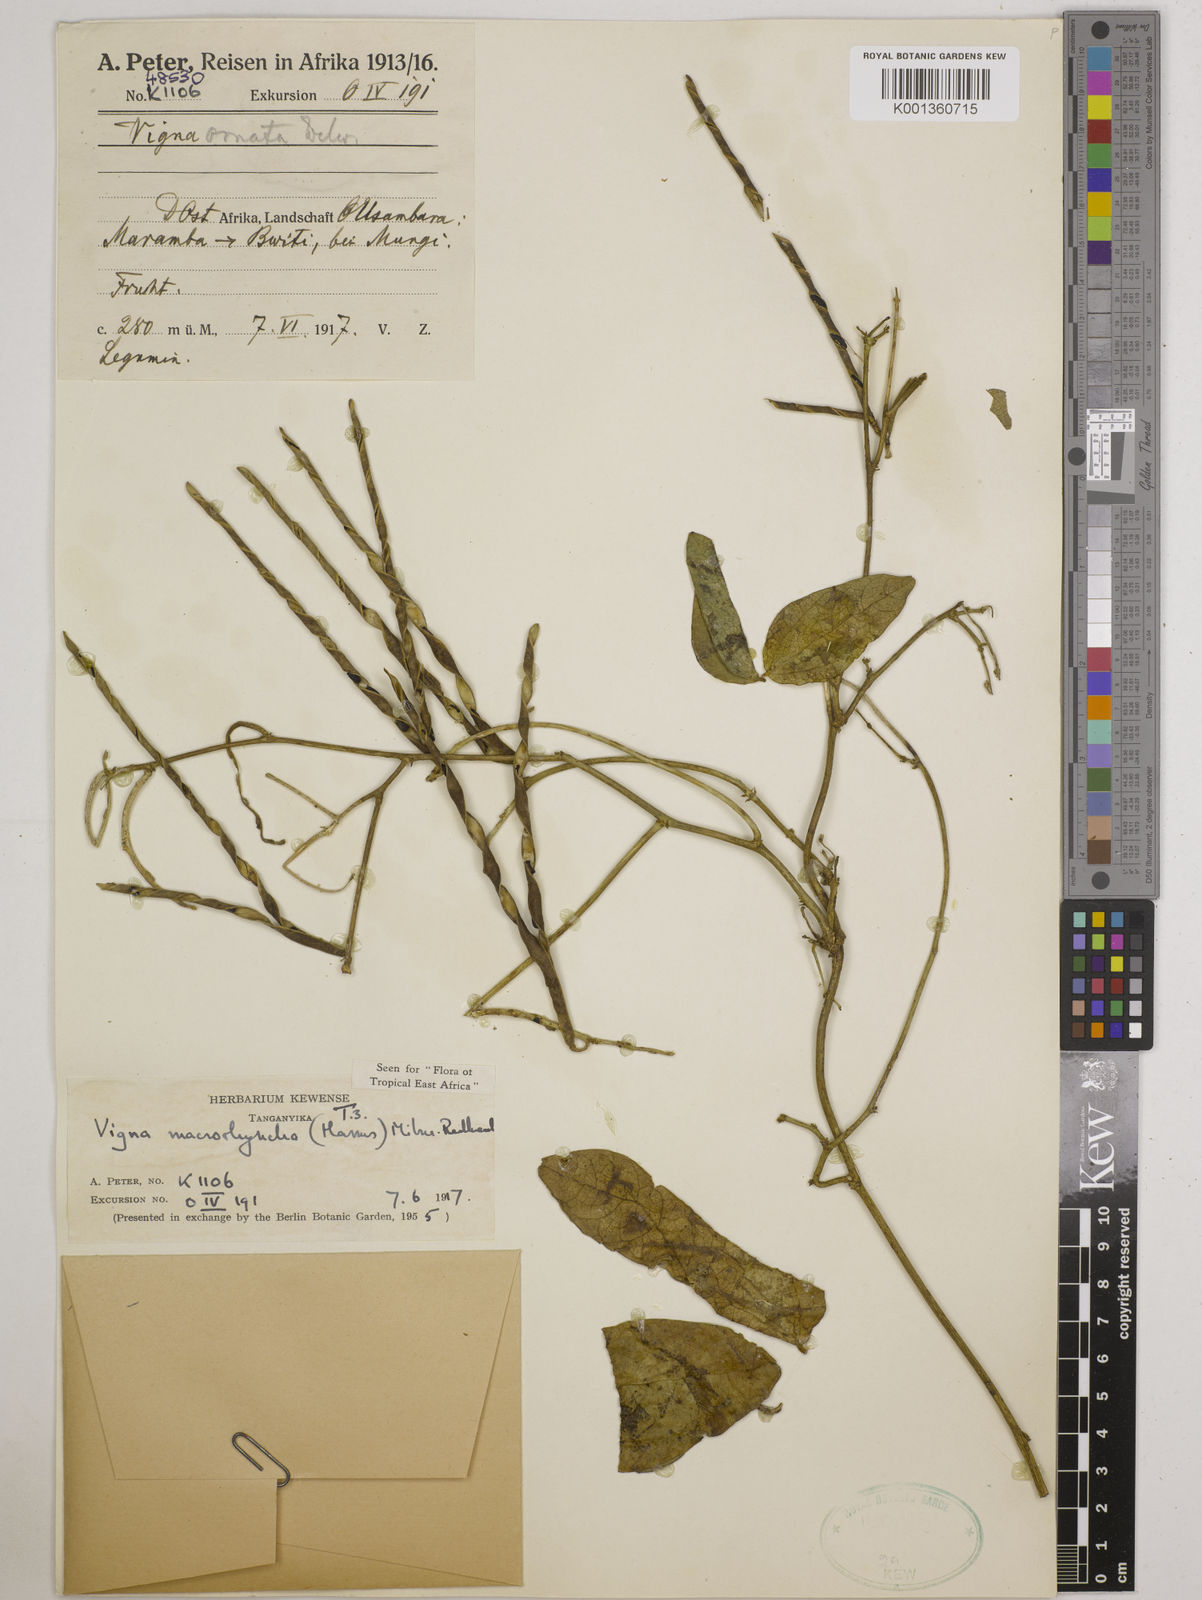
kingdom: Plantae
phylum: Tracheophyta
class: Magnoliopsida
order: Fabales
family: Fabaceae
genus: Wajira
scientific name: Wajira grahamiana
